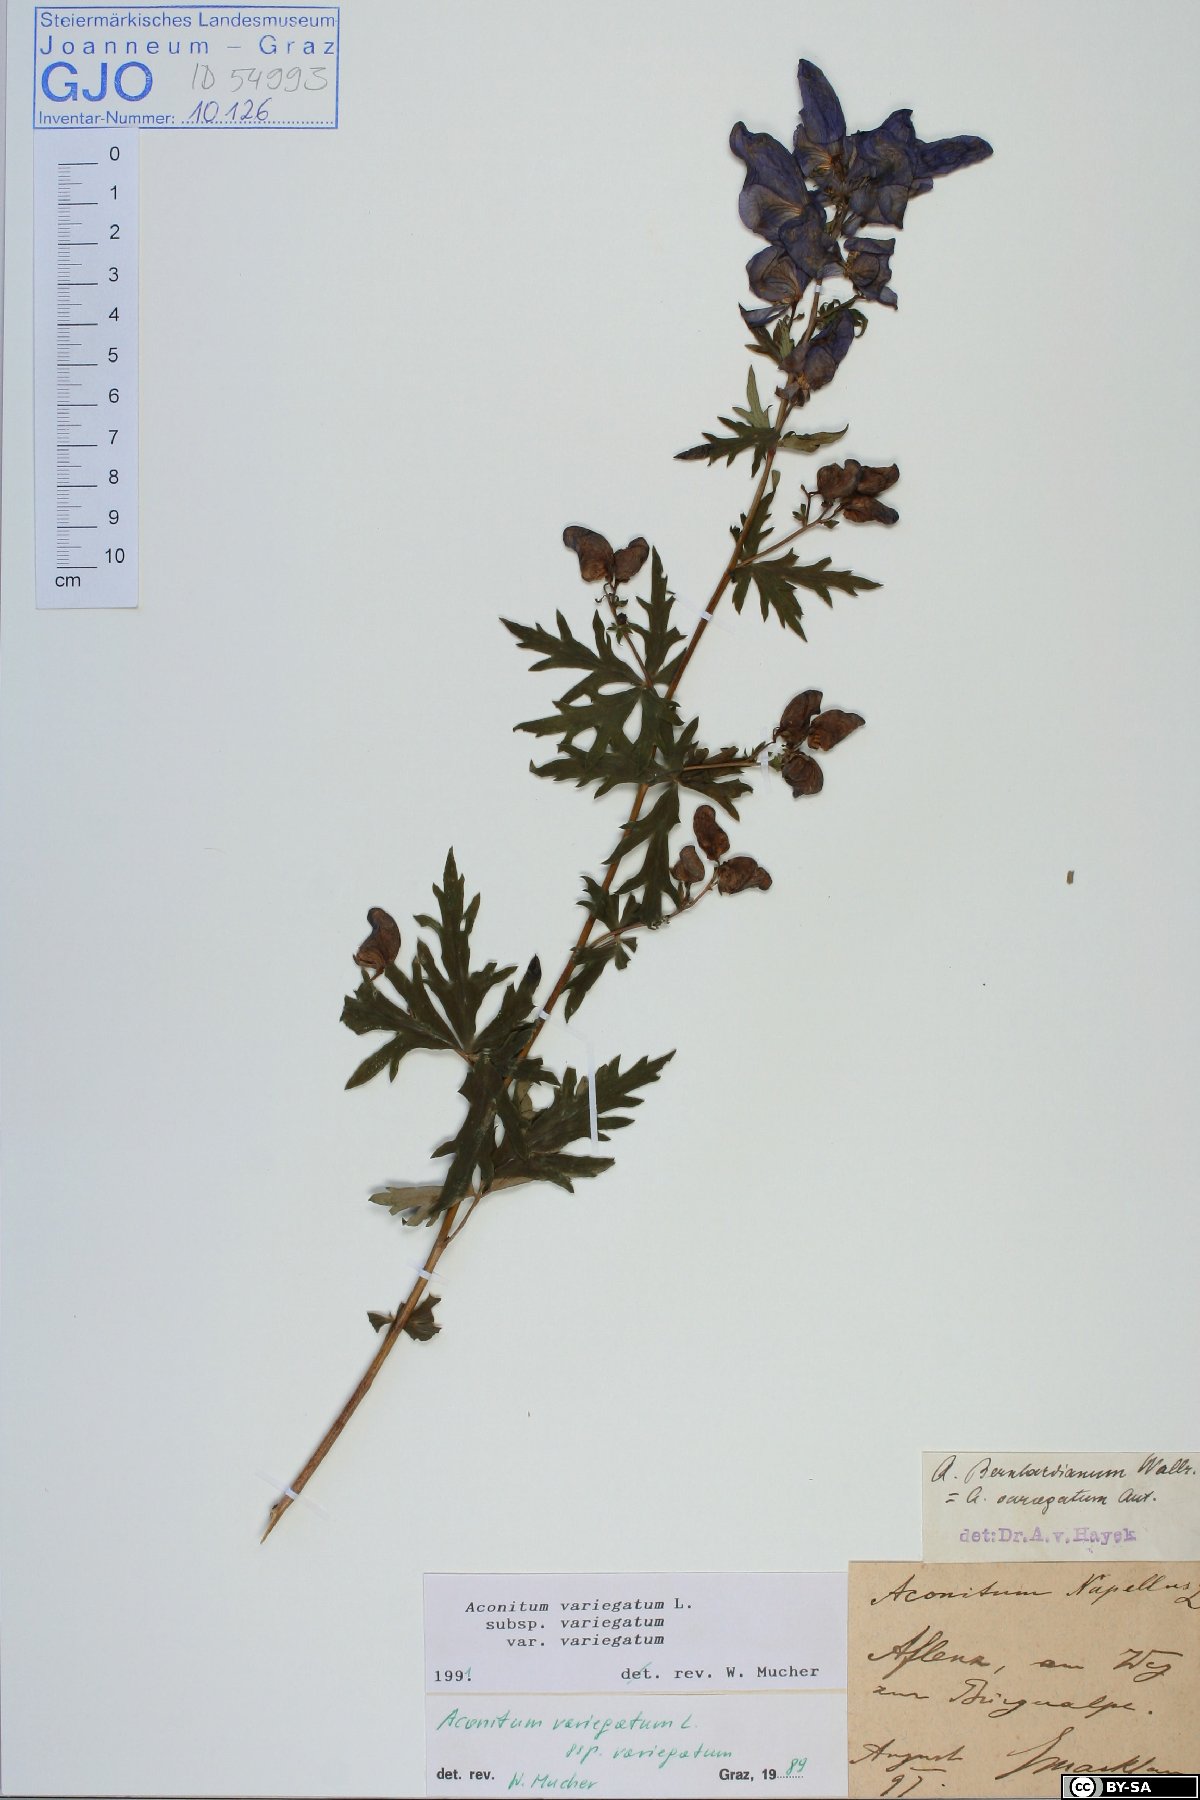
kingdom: Plantae
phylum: Tracheophyta
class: Magnoliopsida
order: Ranunculales
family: Ranunculaceae
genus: Aconitum
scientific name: Aconitum variegatum
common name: Manchurian monkshood
